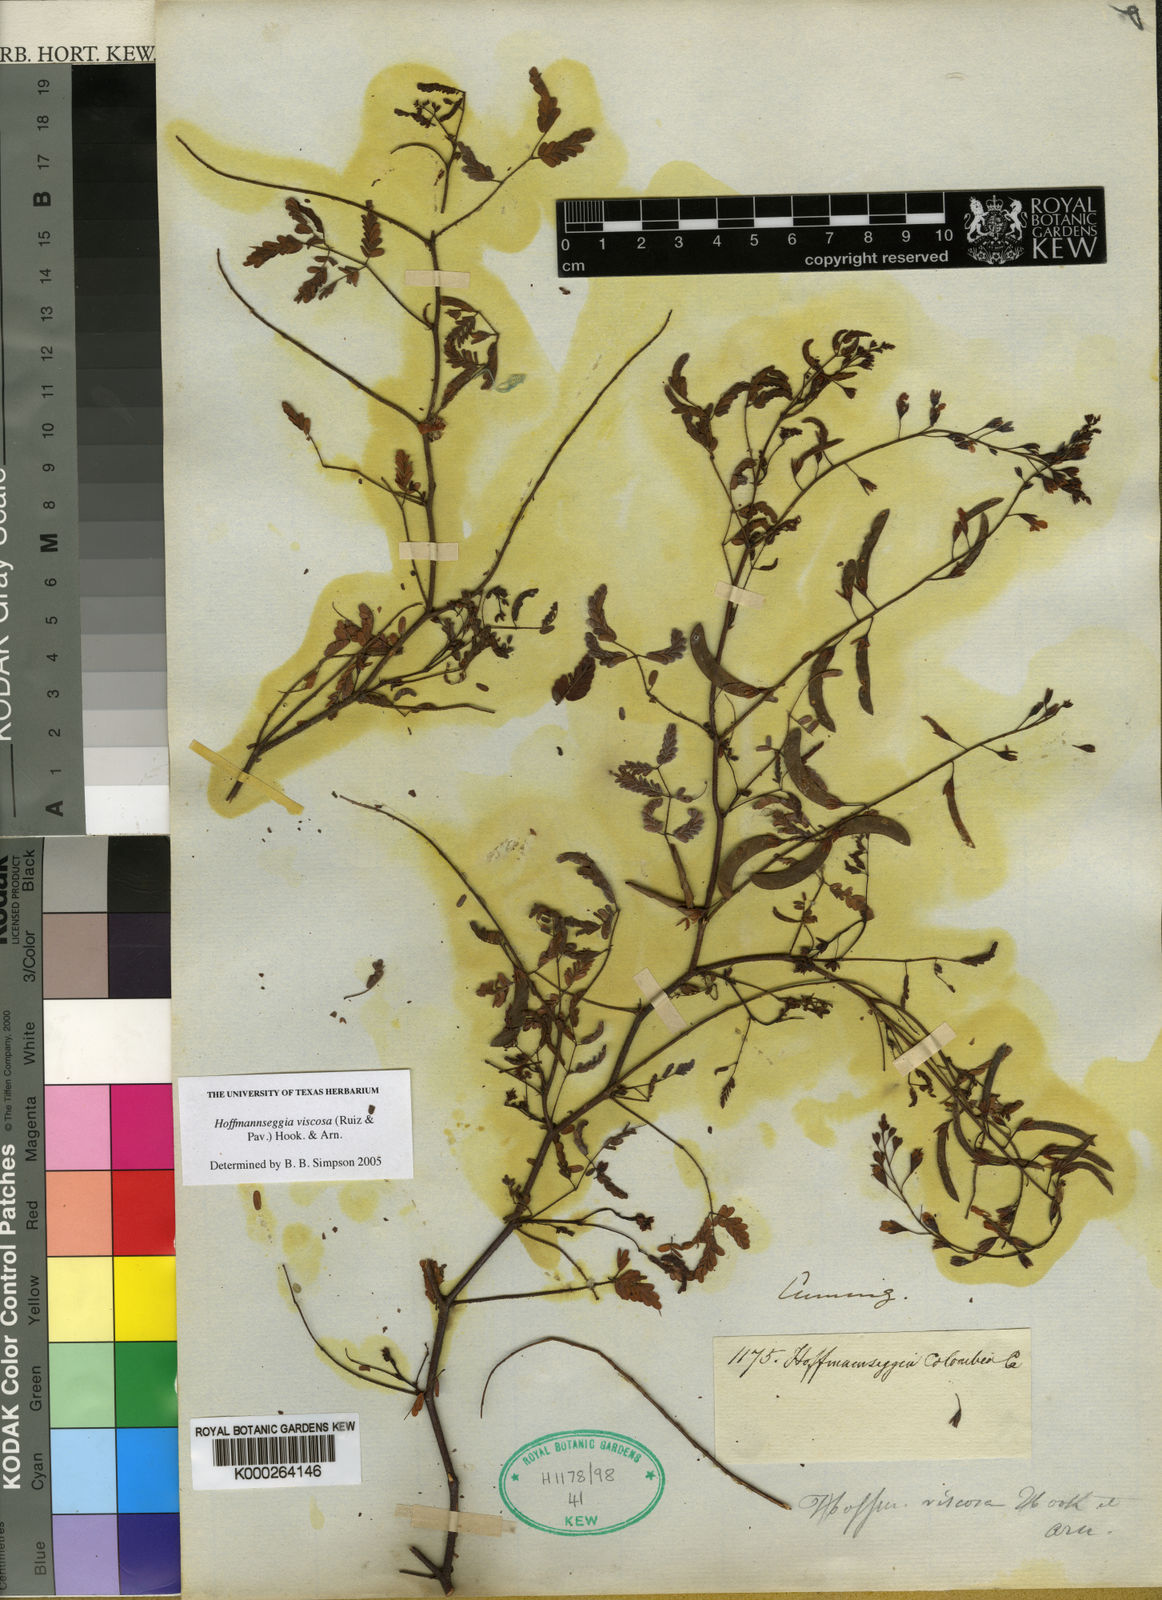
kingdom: Plantae
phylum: Tracheophyta
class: Magnoliopsida
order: Fabales
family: Fabaceae
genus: Hoffmannseggia
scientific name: Hoffmannseggia viscosa
